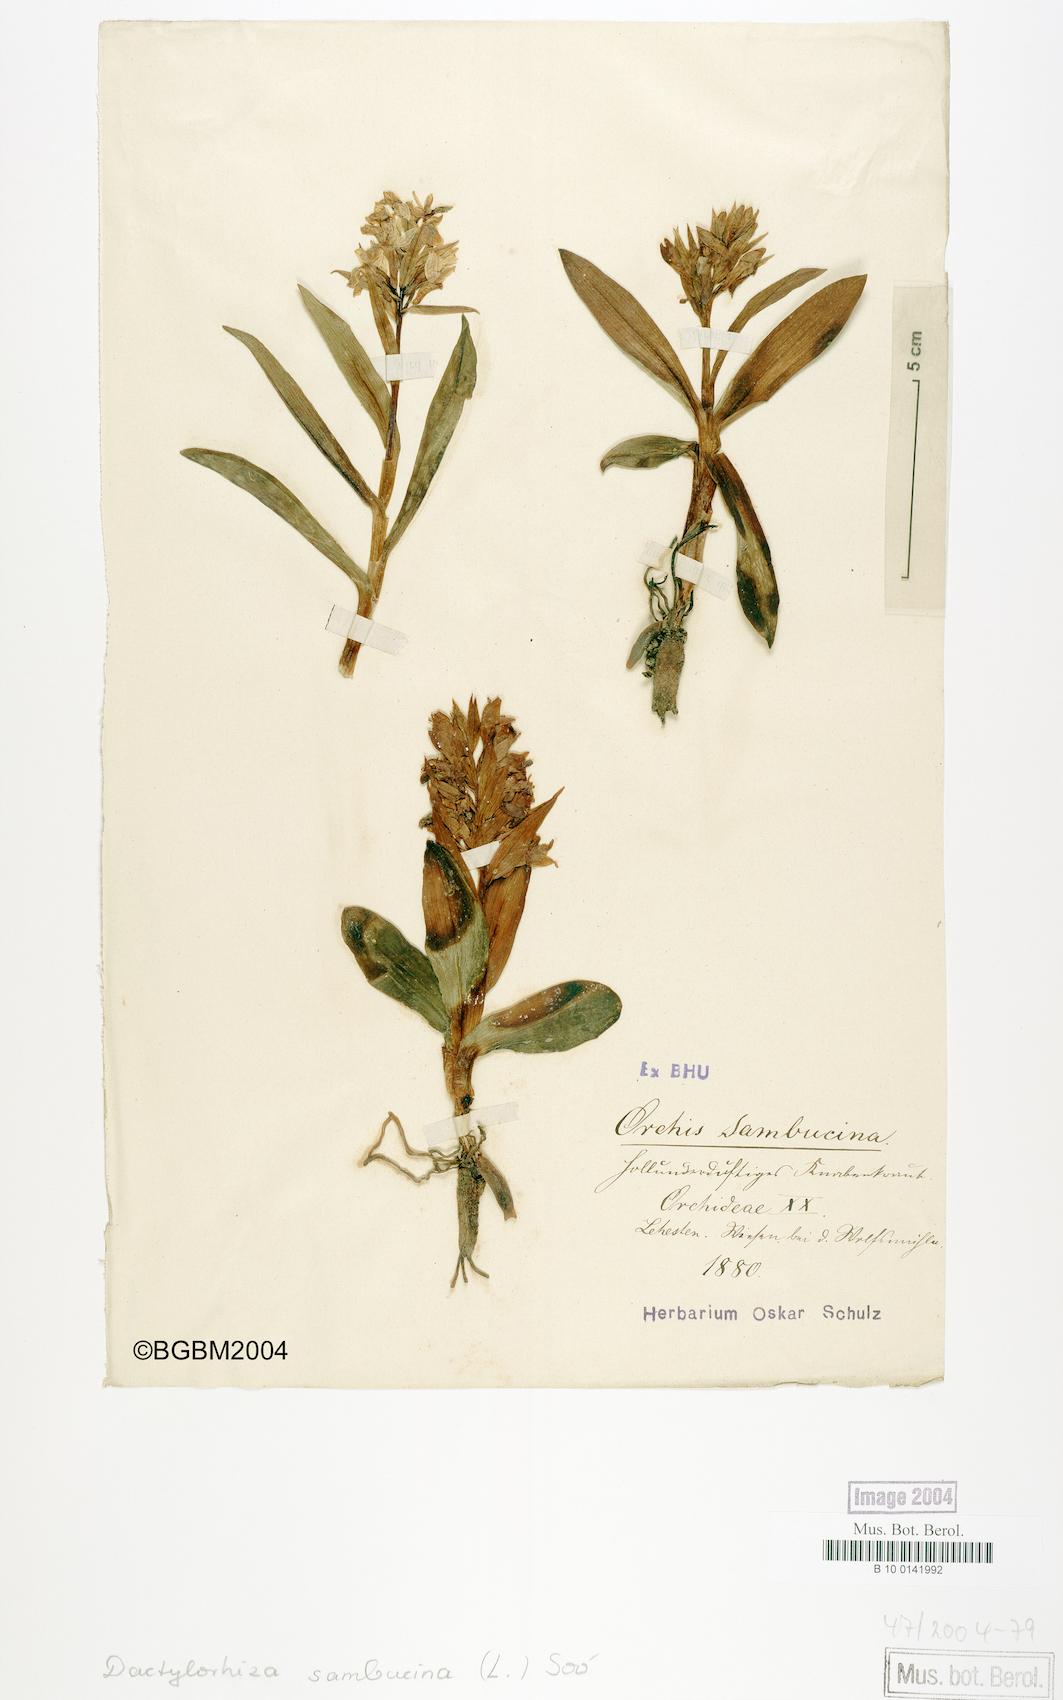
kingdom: Plantae
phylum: Tracheophyta
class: Liliopsida
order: Asparagales
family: Orchidaceae
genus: Dactylorhiza
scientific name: Dactylorhiza sambucina
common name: Elder-flowered orchid
